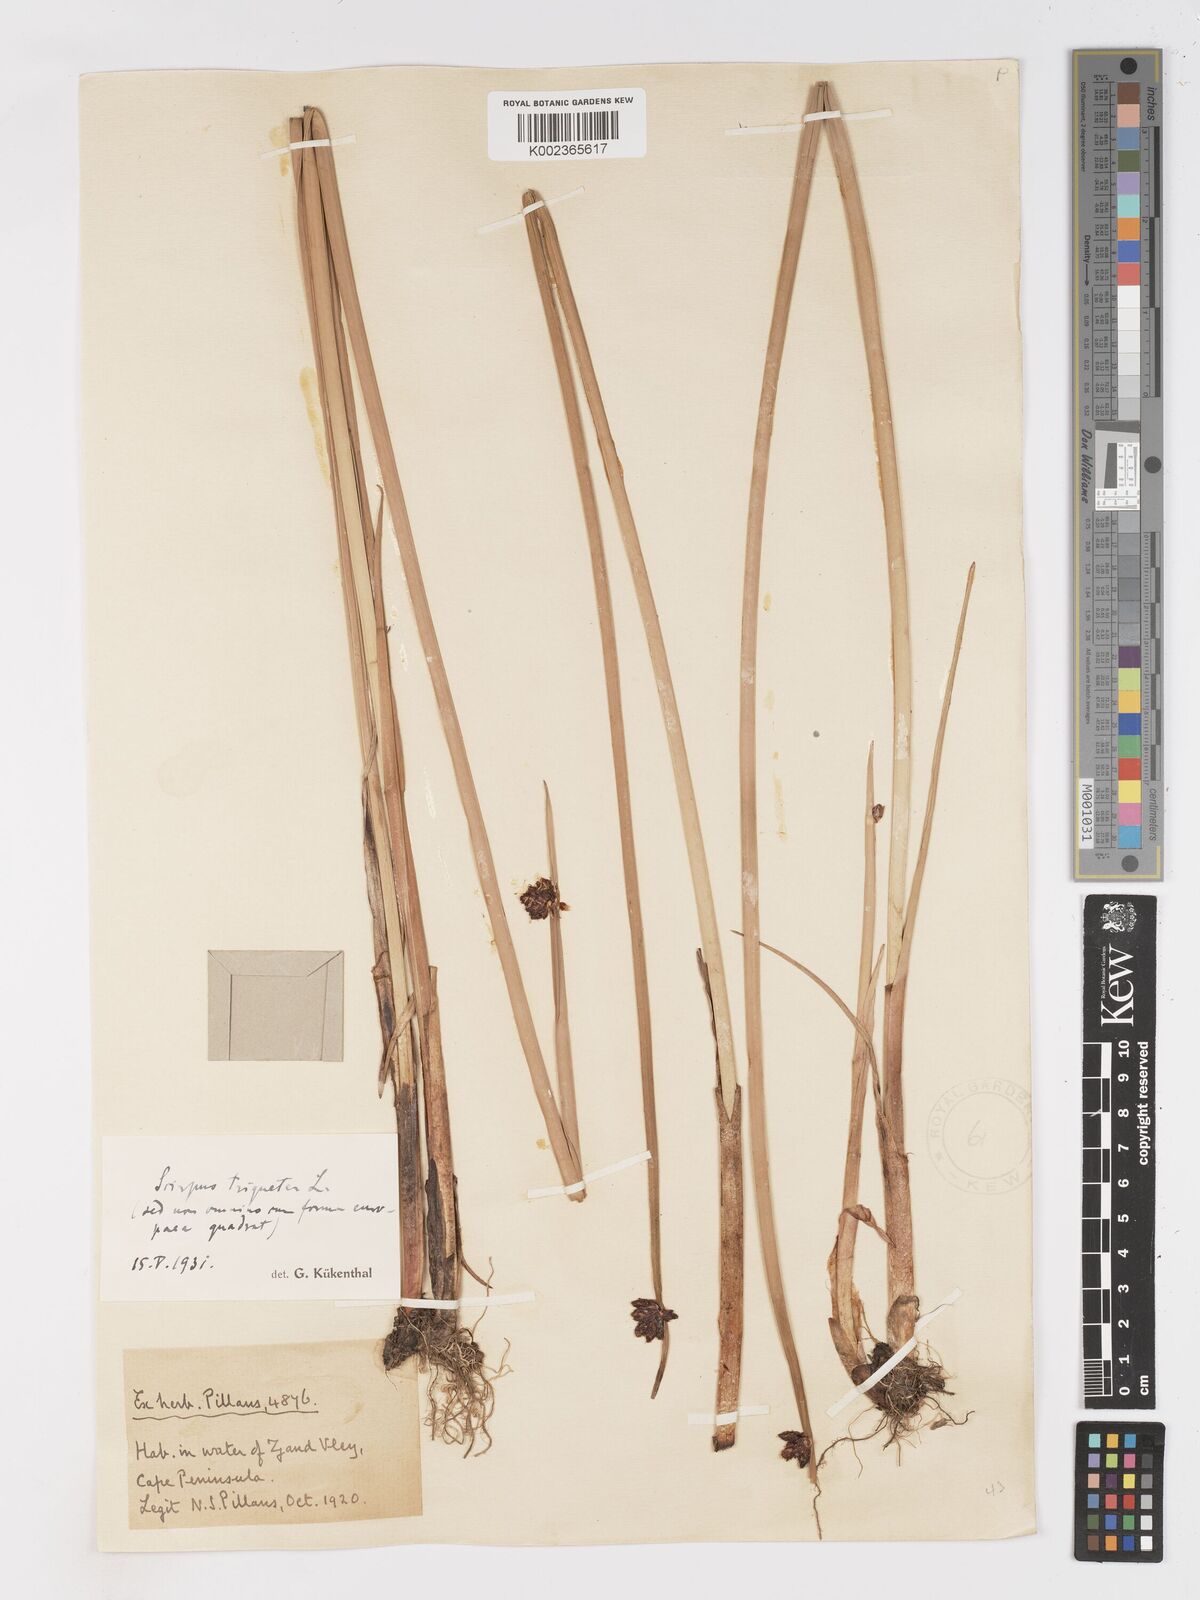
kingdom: Plantae
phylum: Tracheophyta
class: Liliopsida
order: Poales
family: Cyperaceae
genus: Schoenoplectus
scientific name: Schoenoplectus triqueter
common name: Triangular club-rush
